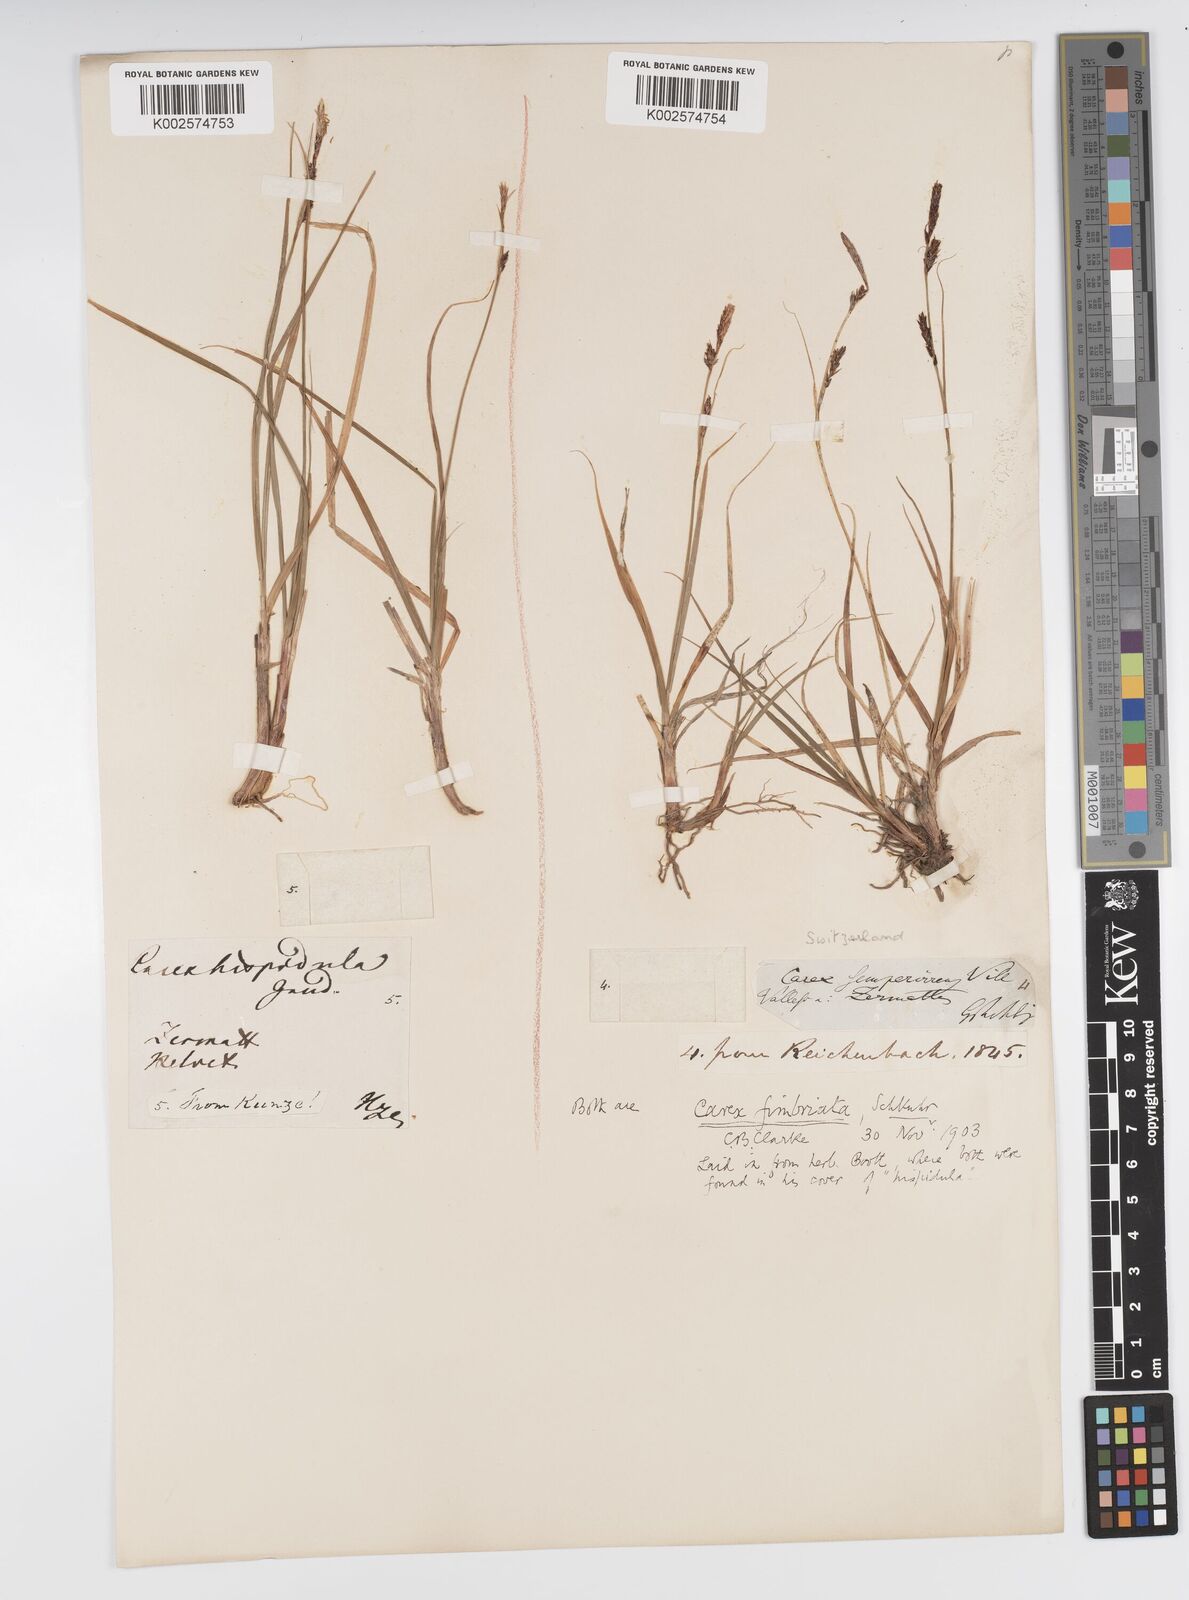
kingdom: Plantae
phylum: Tracheophyta
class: Liliopsida
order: Poales
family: Cyperaceae
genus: Carex
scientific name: Carex fimbriata
